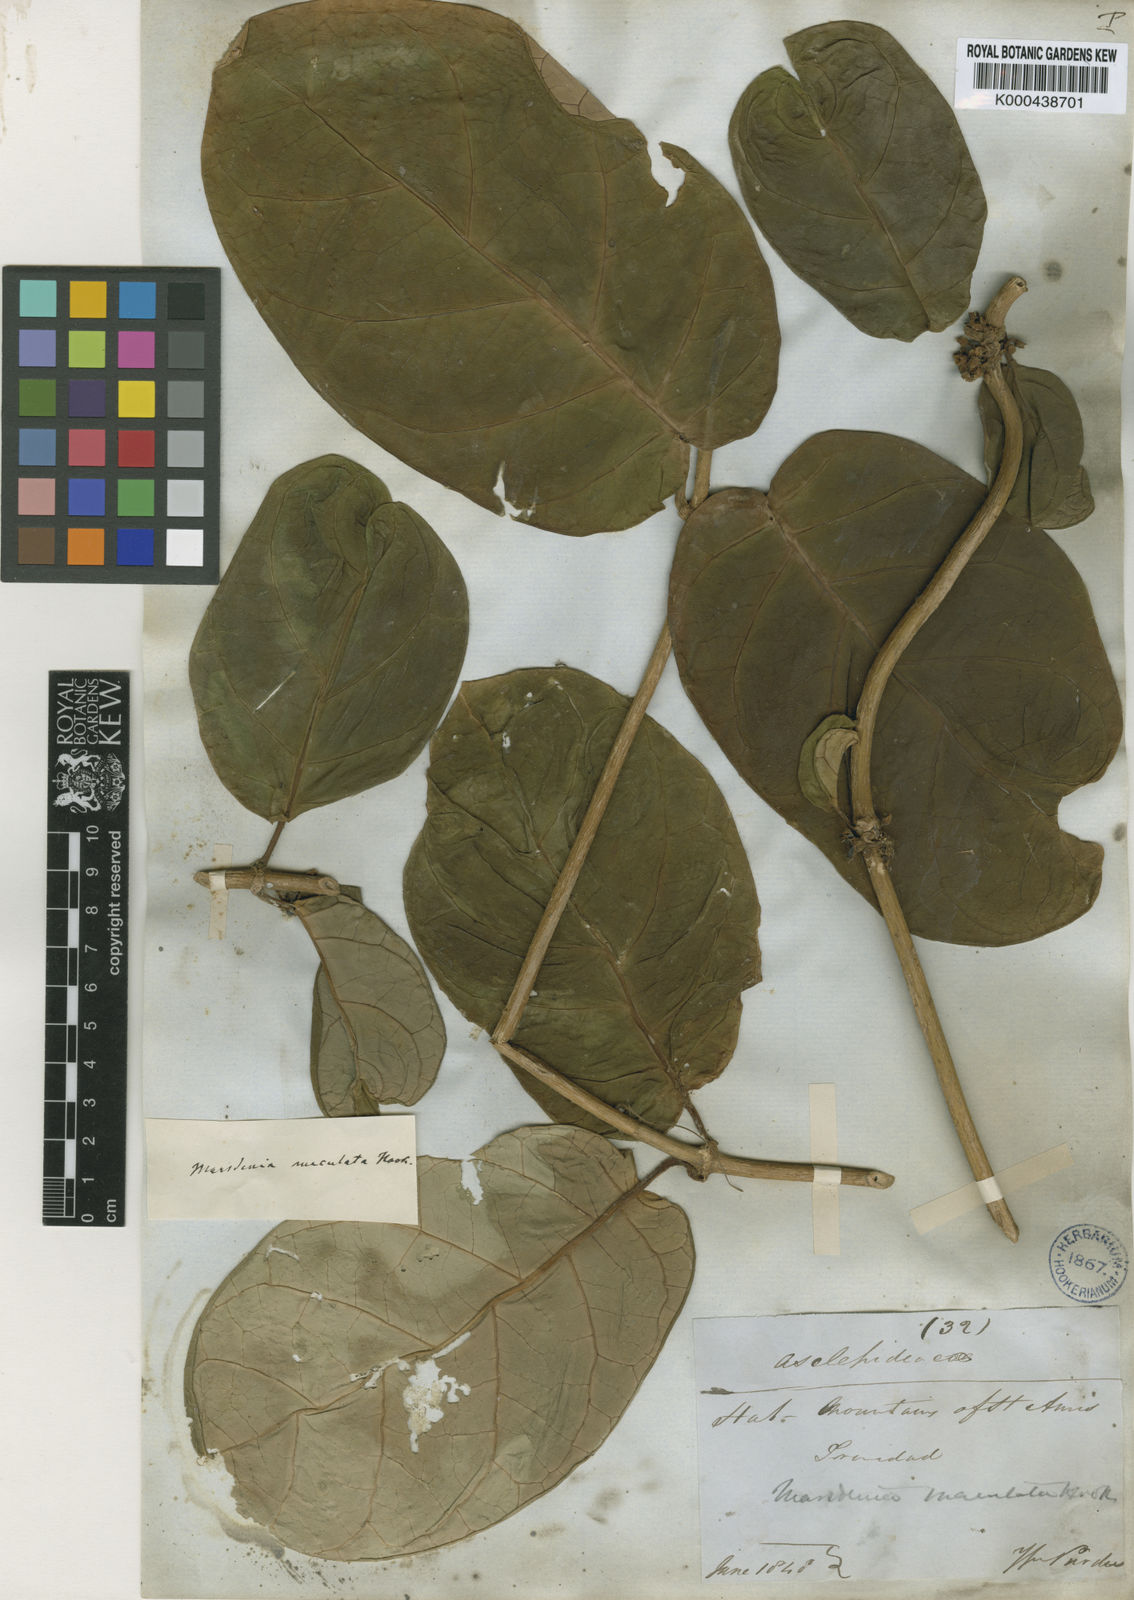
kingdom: Plantae
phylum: Tracheophyta
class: Magnoliopsida
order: Gentianales
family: Apocynaceae
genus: Ruehssia
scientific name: Ruehssia macrophylla
